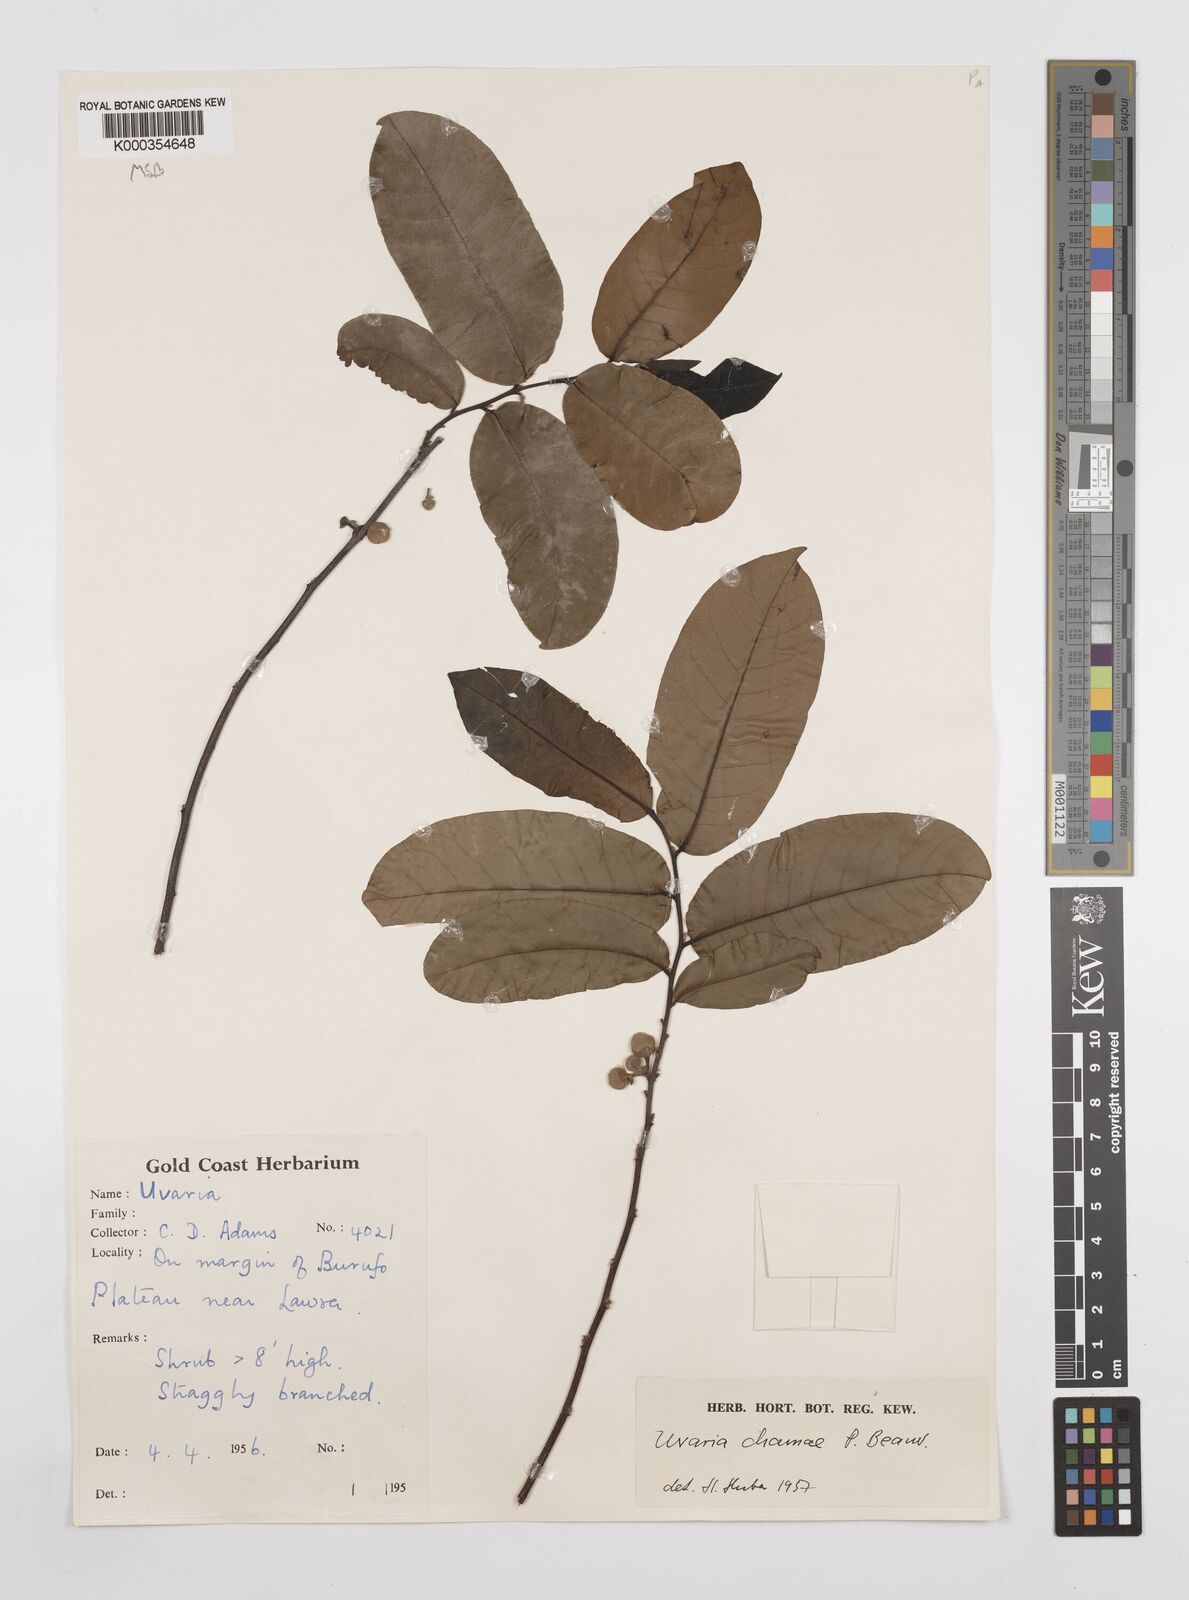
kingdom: Plantae
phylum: Tracheophyta
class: Magnoliopsida
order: Magnoliales
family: Annonaceae
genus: Uvaria
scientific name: Uvaria chamae
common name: Finger-root
